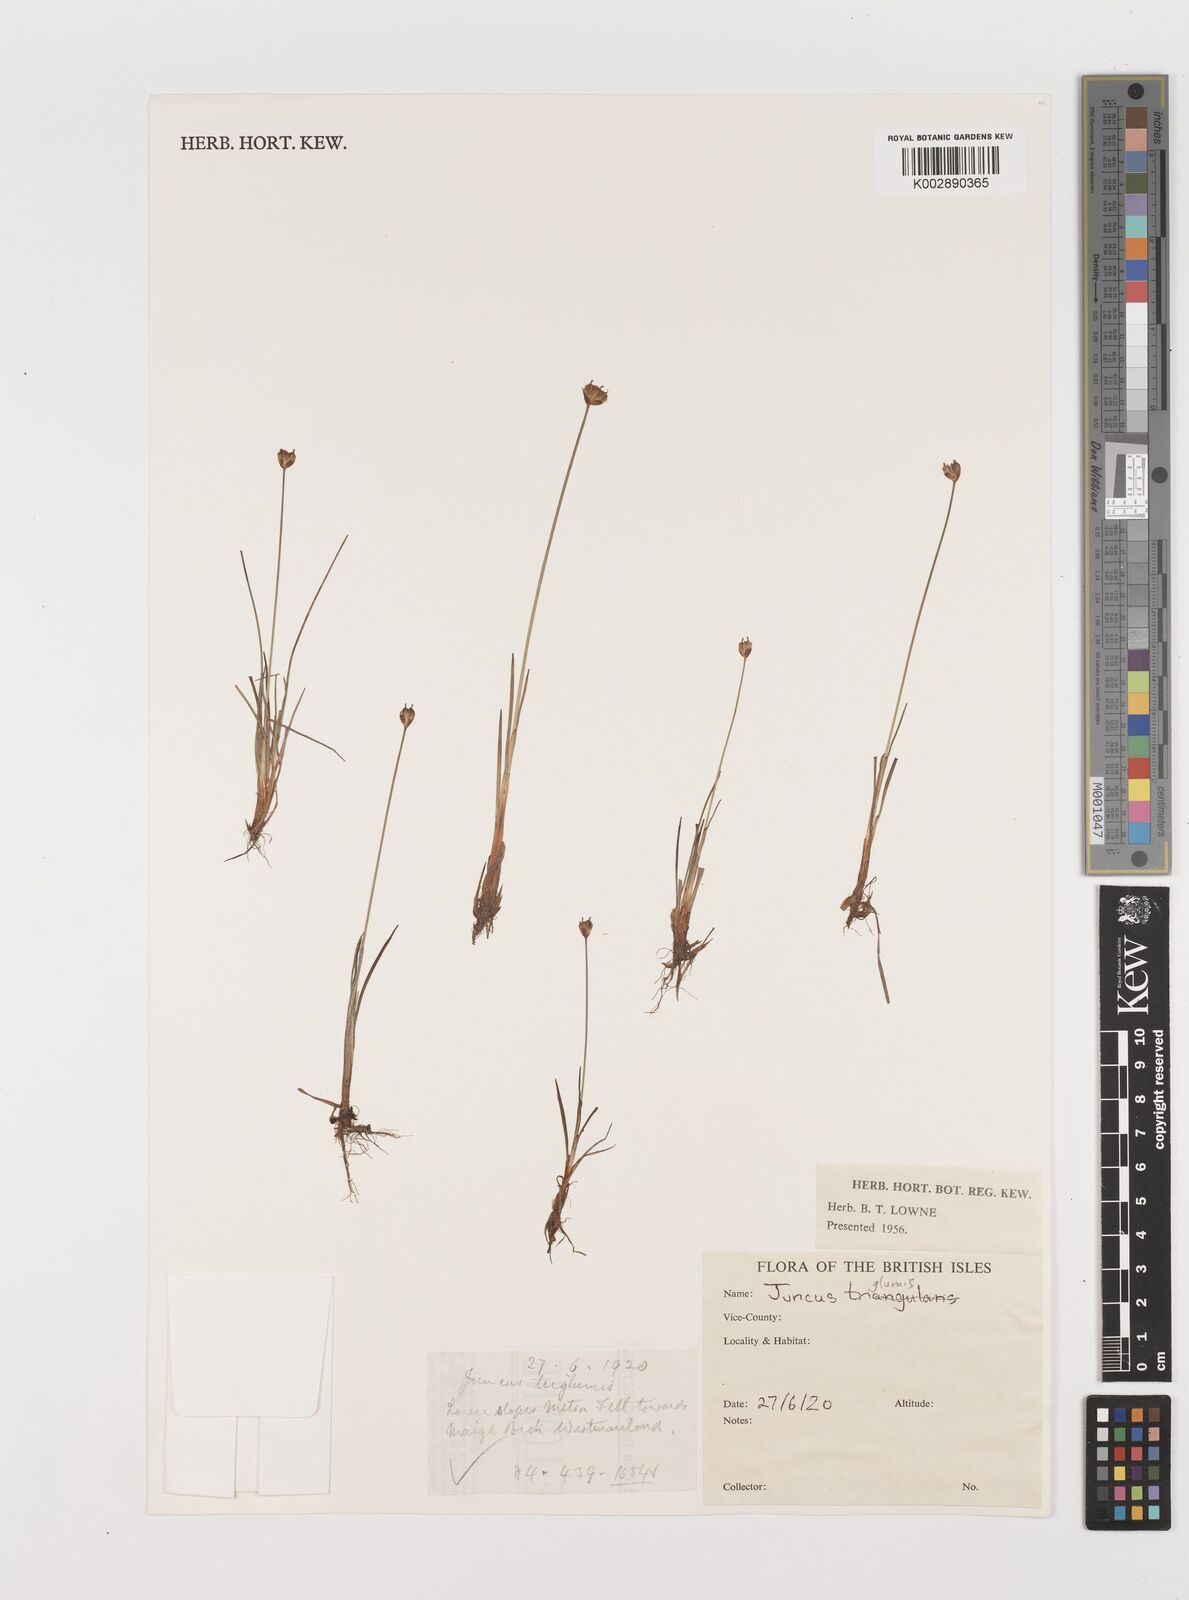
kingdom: Plantae
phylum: Tracheophyta
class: Liliopsida
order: Poales
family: Juncaceae
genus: Juncus
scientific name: Juncus triglumis
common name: Three-flowered rush
